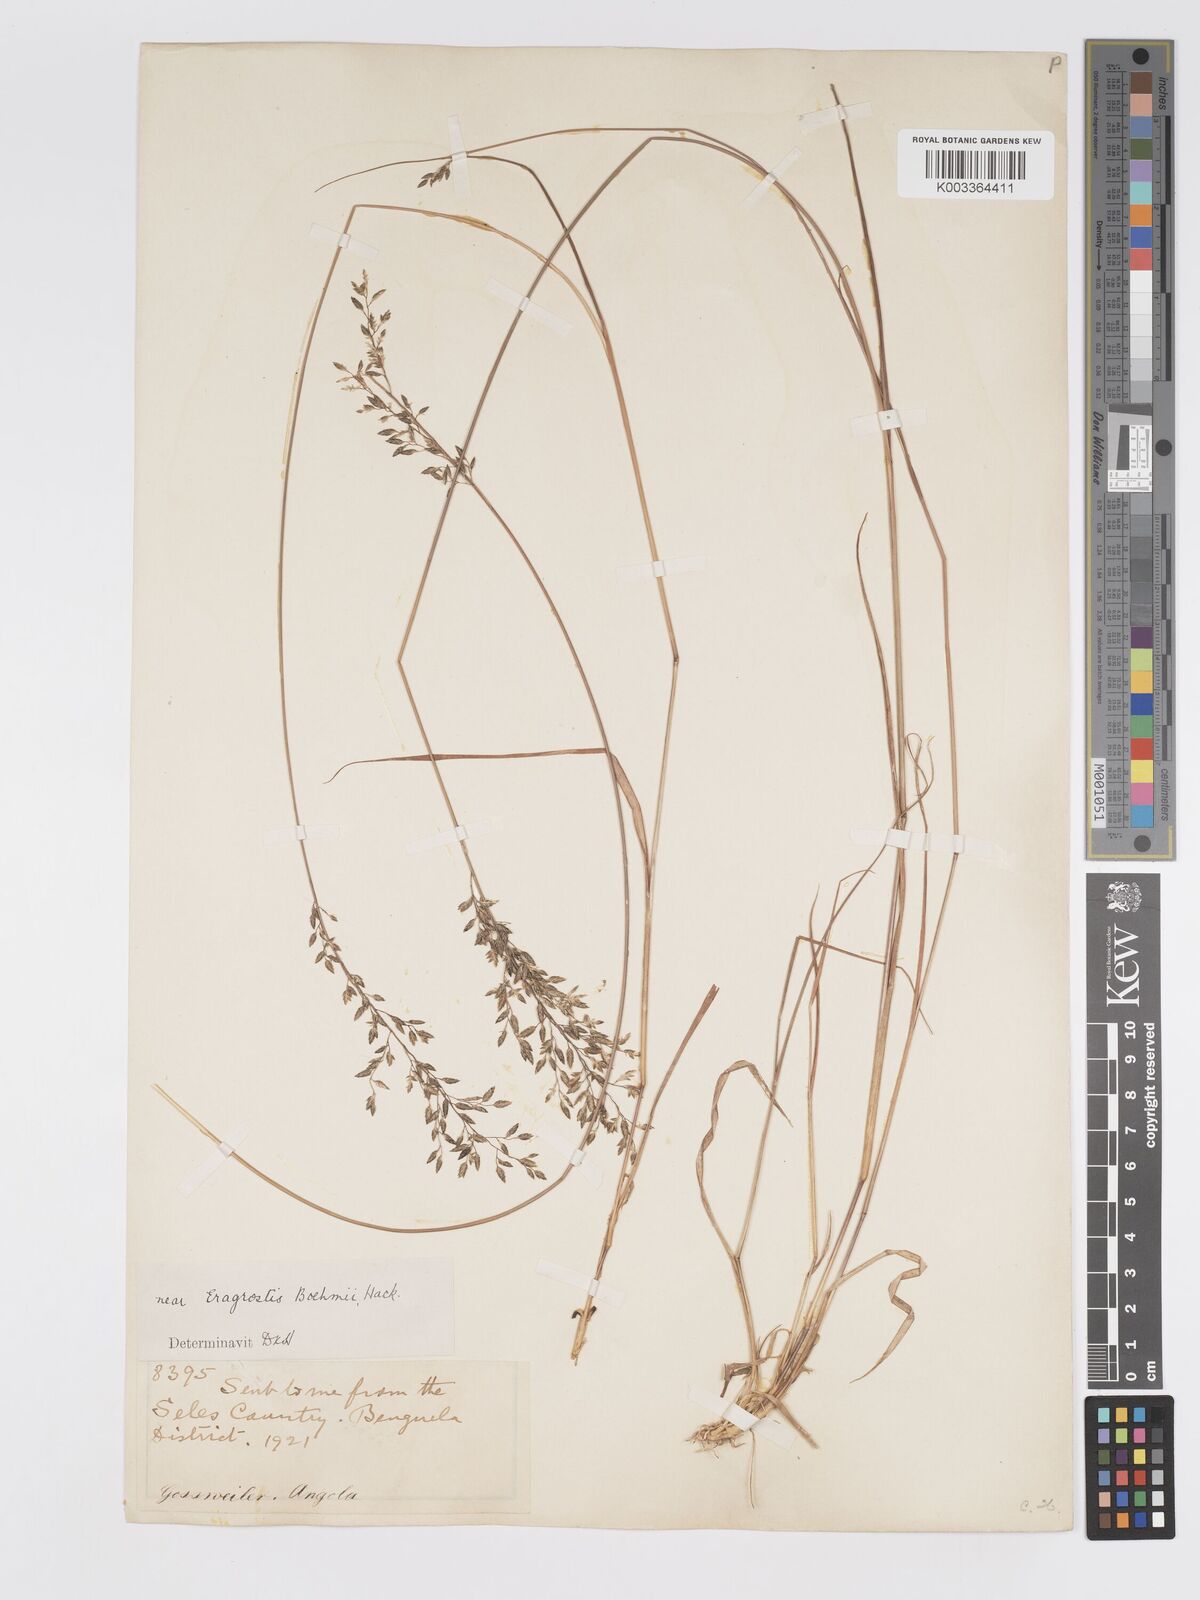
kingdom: Plantae
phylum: Tracheophyta
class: Liliopsida
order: Poales
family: Poaceae
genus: Eragrostis
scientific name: Eragrostis racemosa
